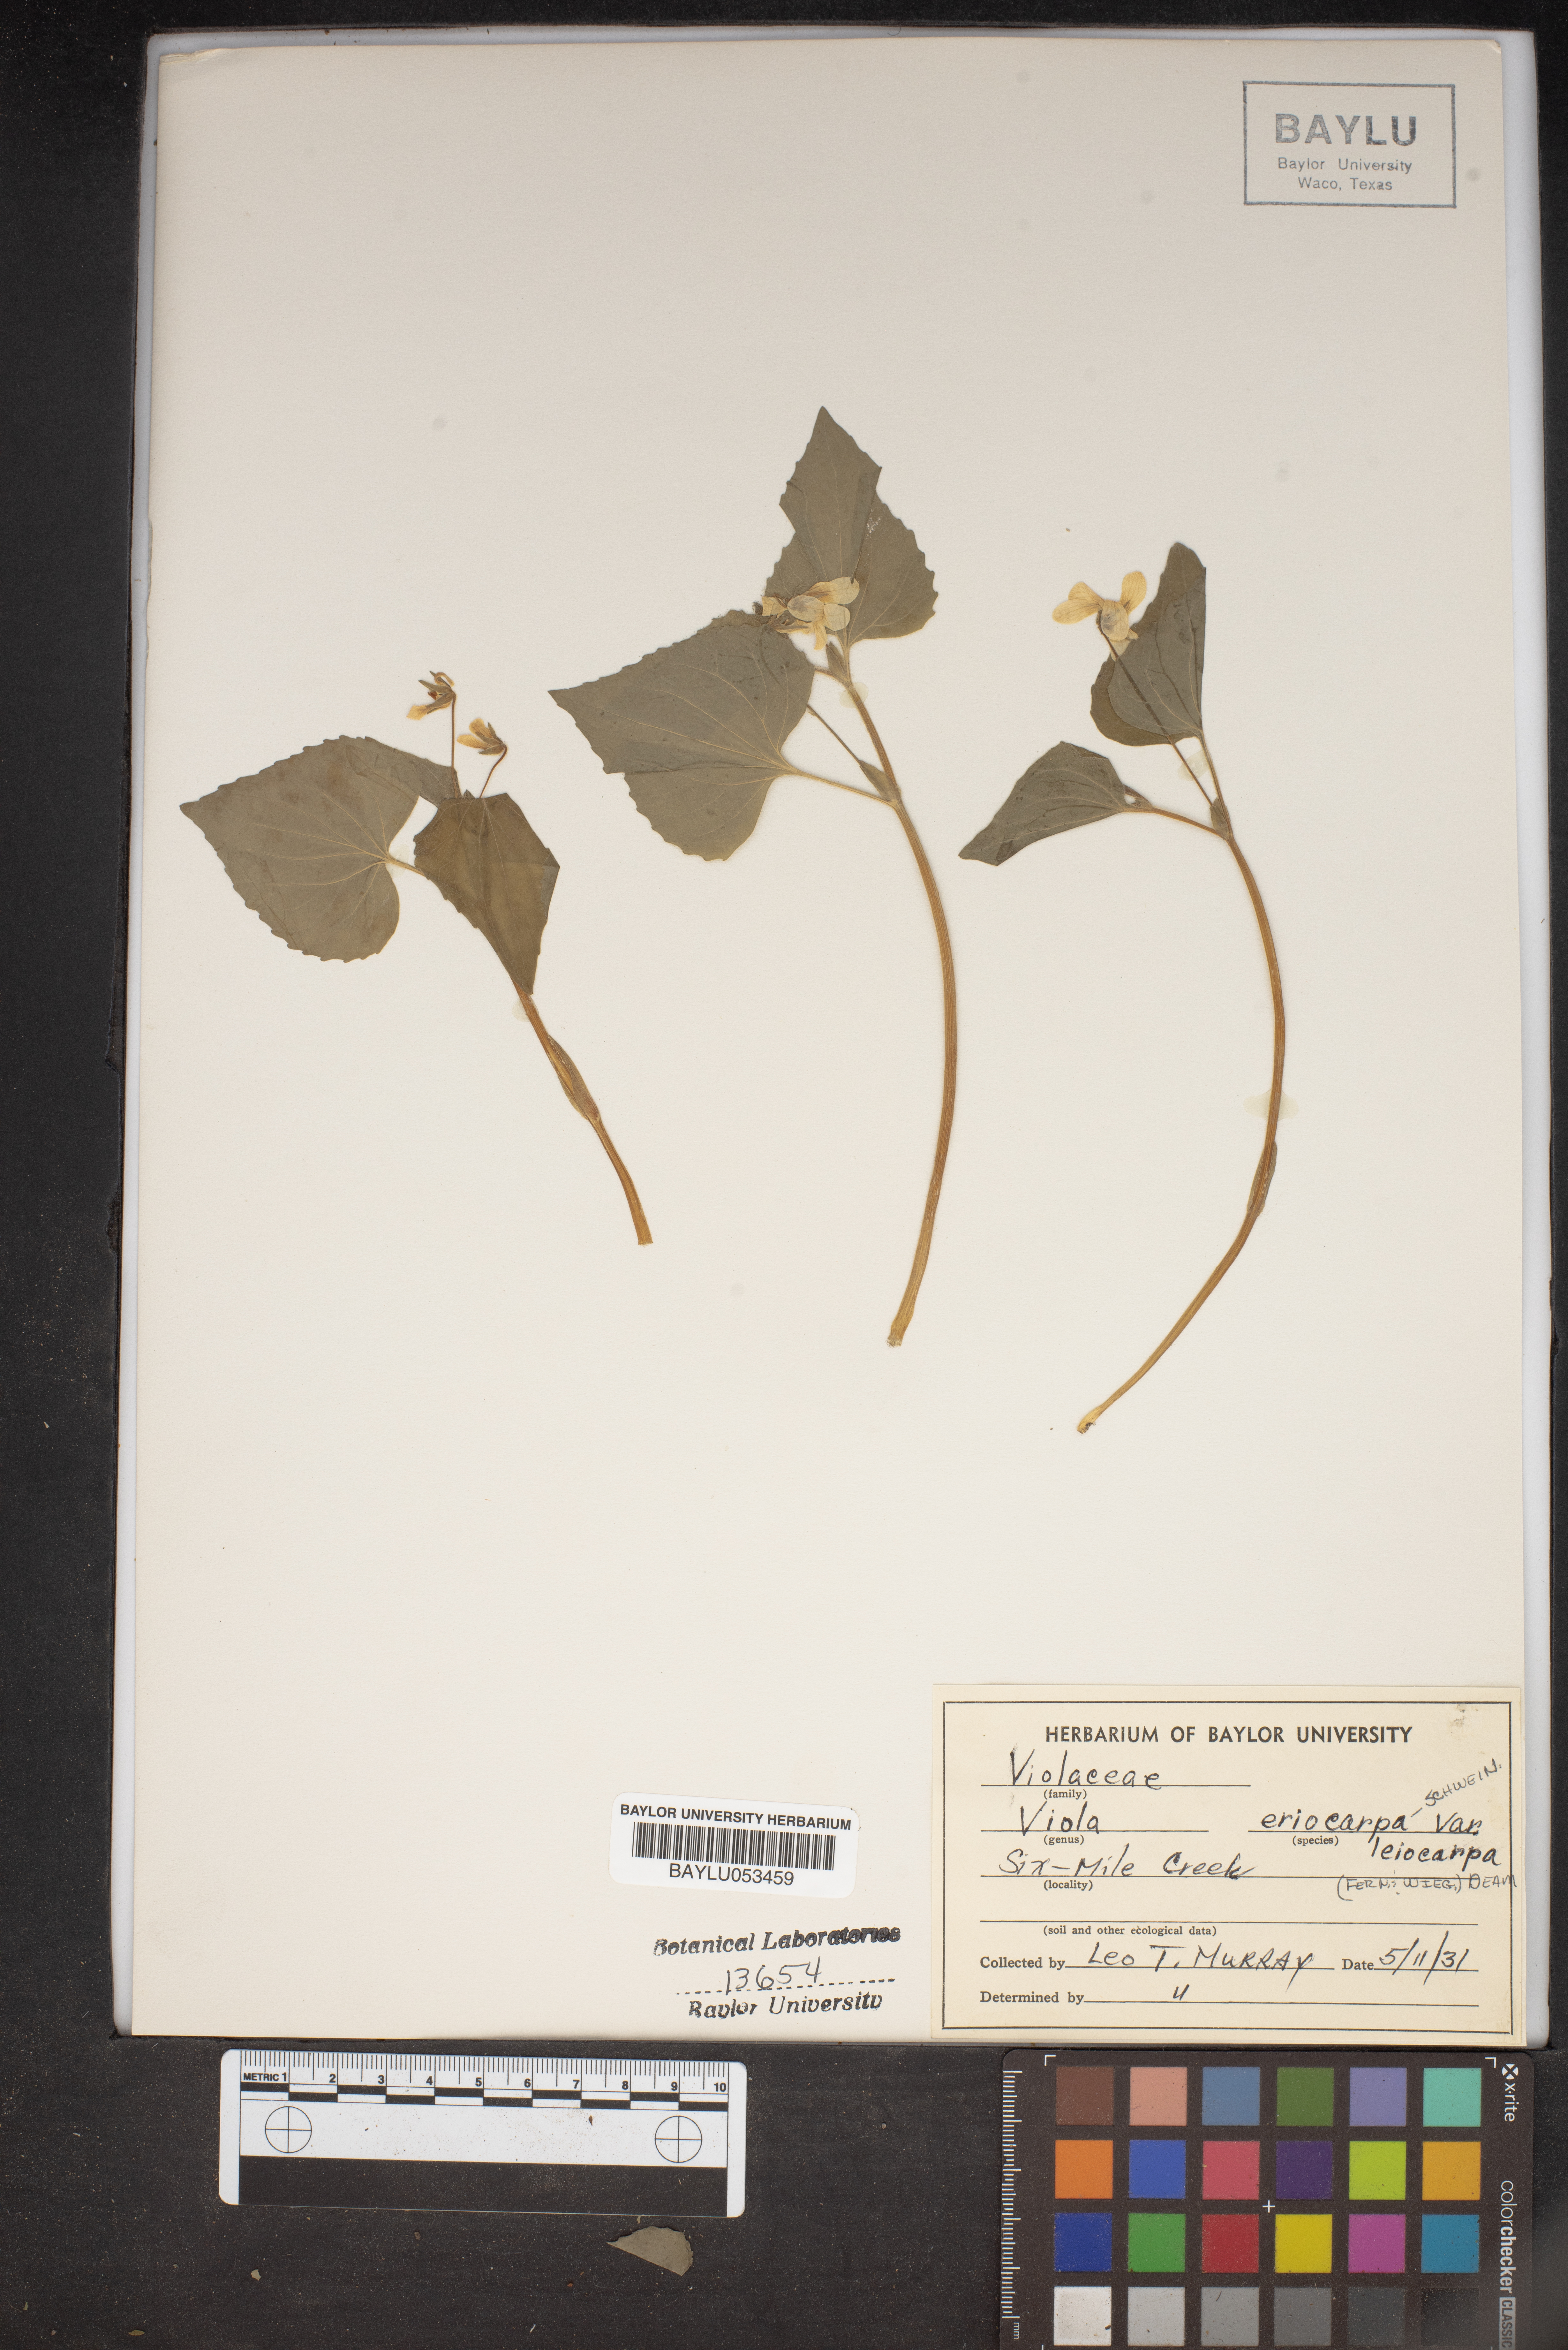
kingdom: Plantae
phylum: Tracheophyta
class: Magnoliopsida
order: Malpighiales
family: Violaceae
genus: Viola
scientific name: Viola eriocarpa
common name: Smooth yellow violet
